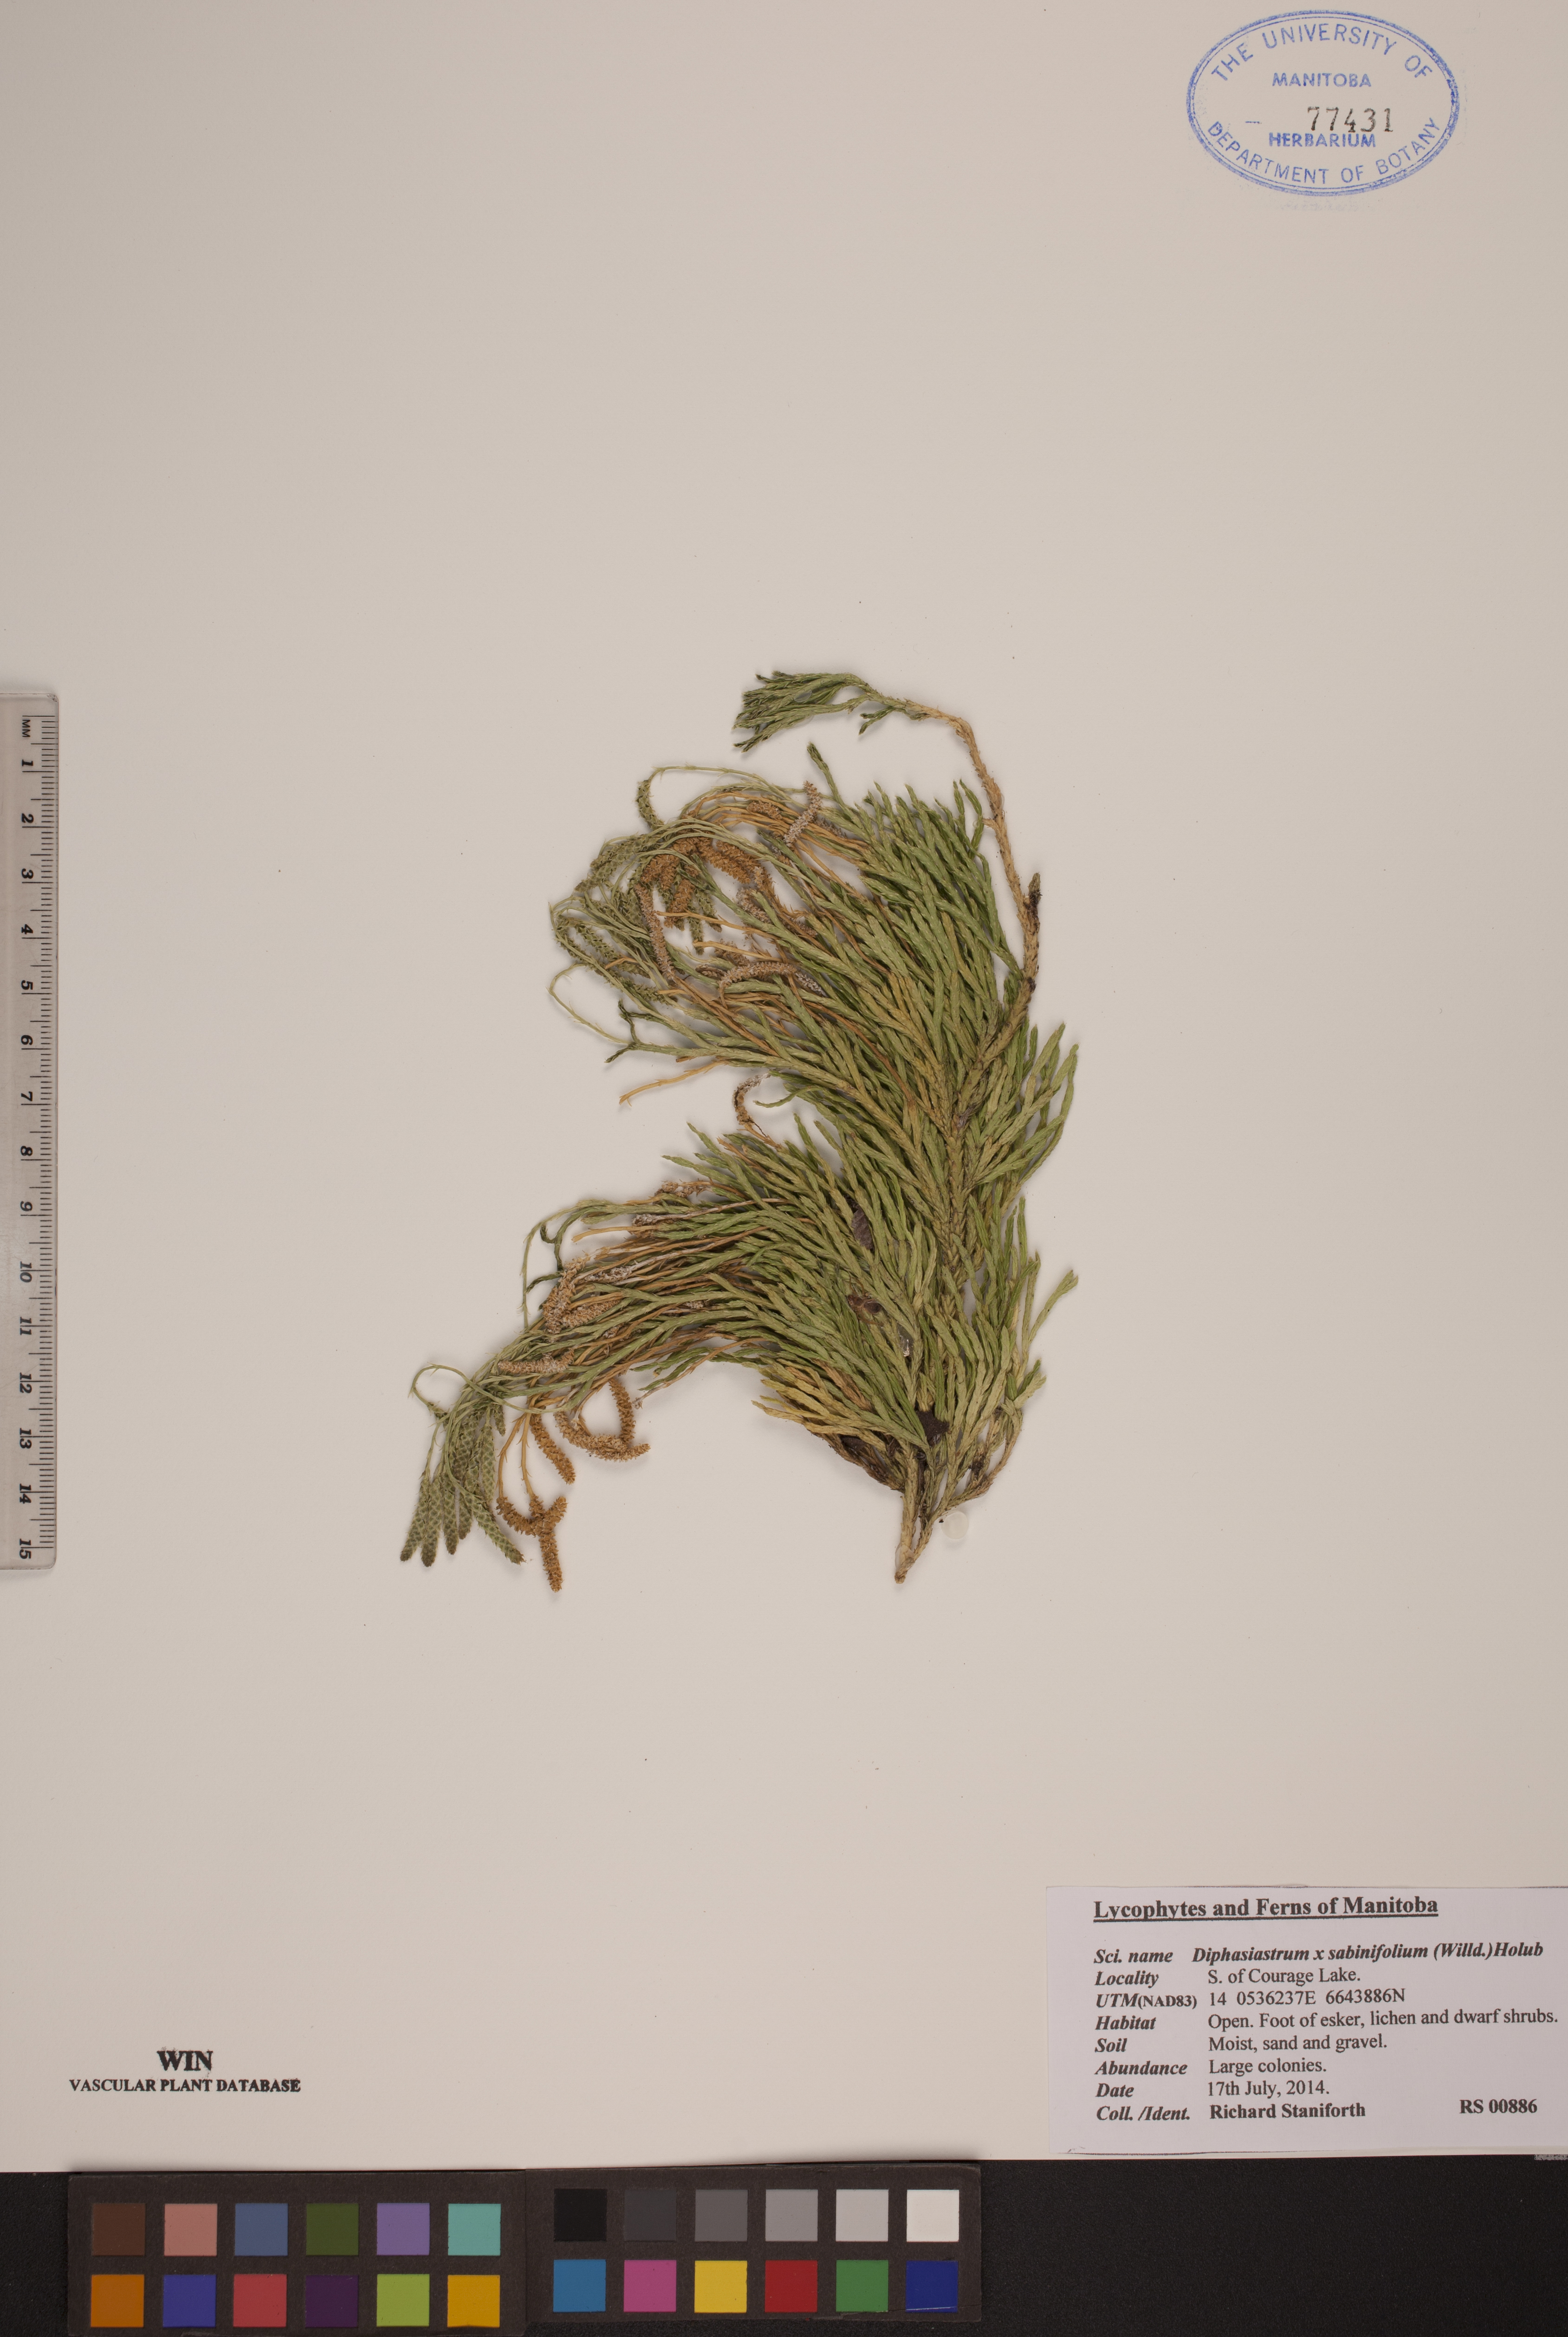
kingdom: Plantae
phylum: Tracheophyta
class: Lycopodiopsida
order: Lycopodiales
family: Lycopodiaceae
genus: Diphasiastrum
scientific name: Diphasiastrum sabinifolium
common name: Juniper clubmoss
